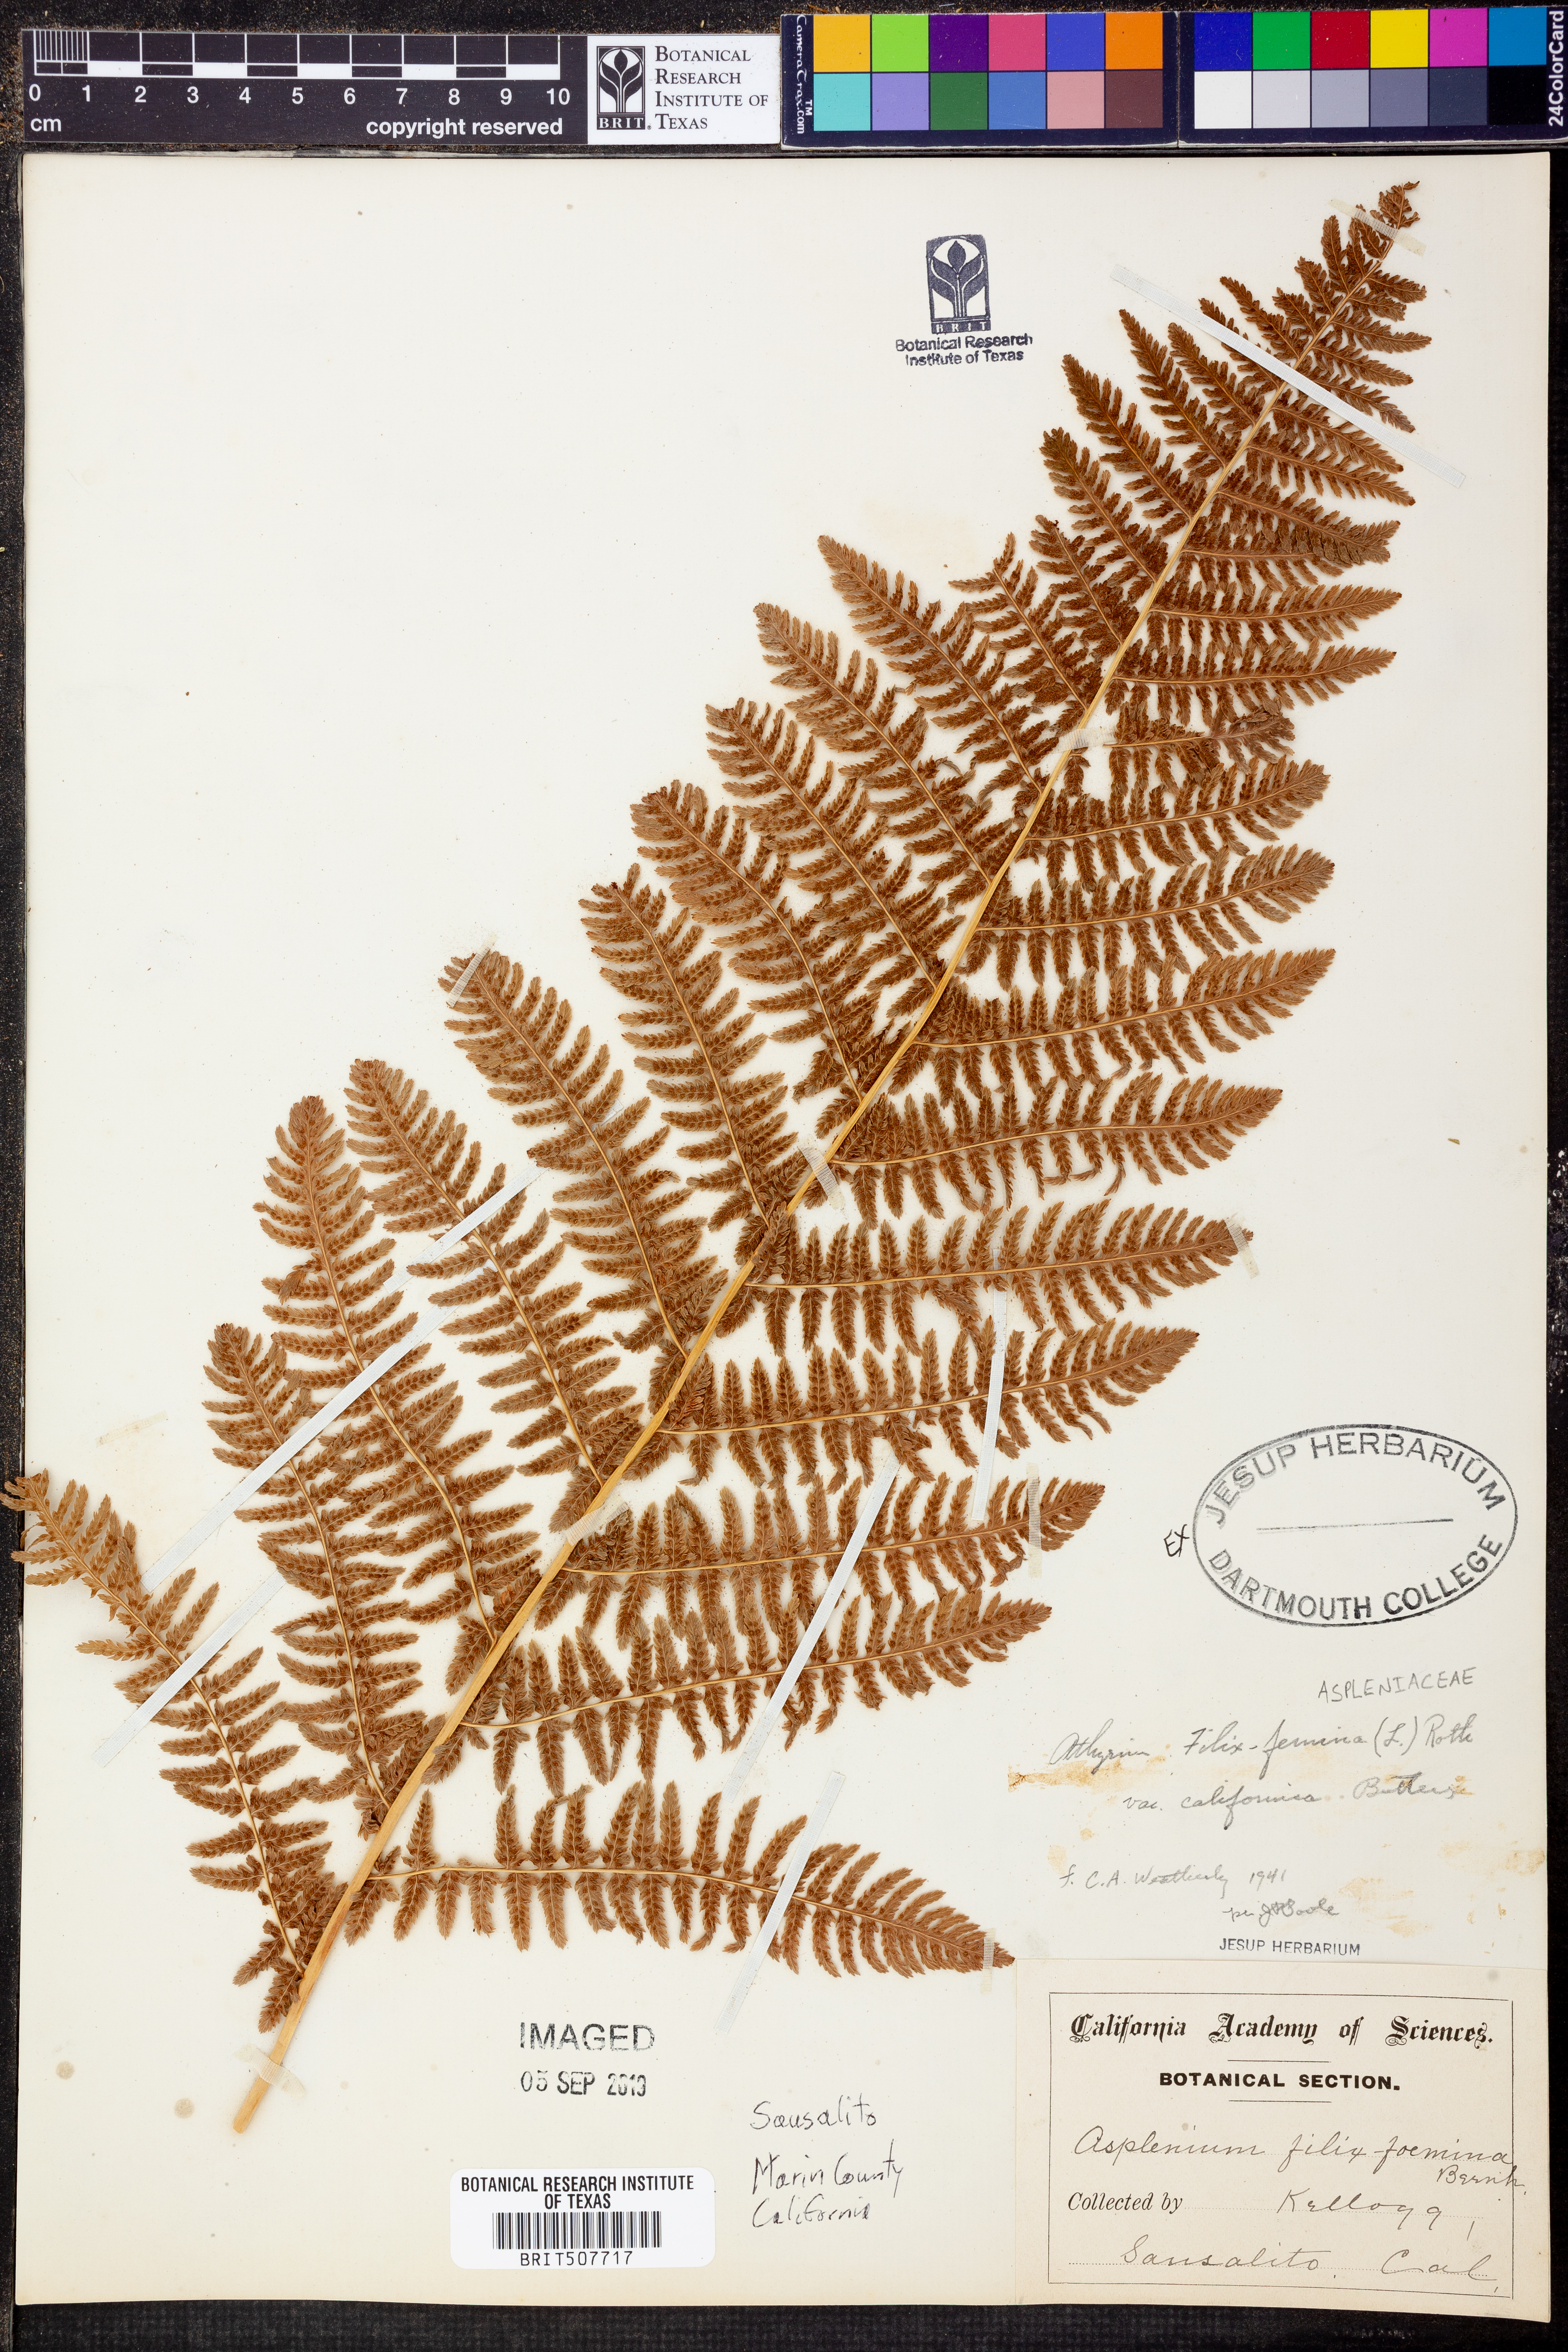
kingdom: Plantae
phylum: Tracheophyta
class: Polypodiopsida
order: Polypodiales
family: Athyriaceae
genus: Athyrium
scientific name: Athyrium filix-femina
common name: Lady fern
